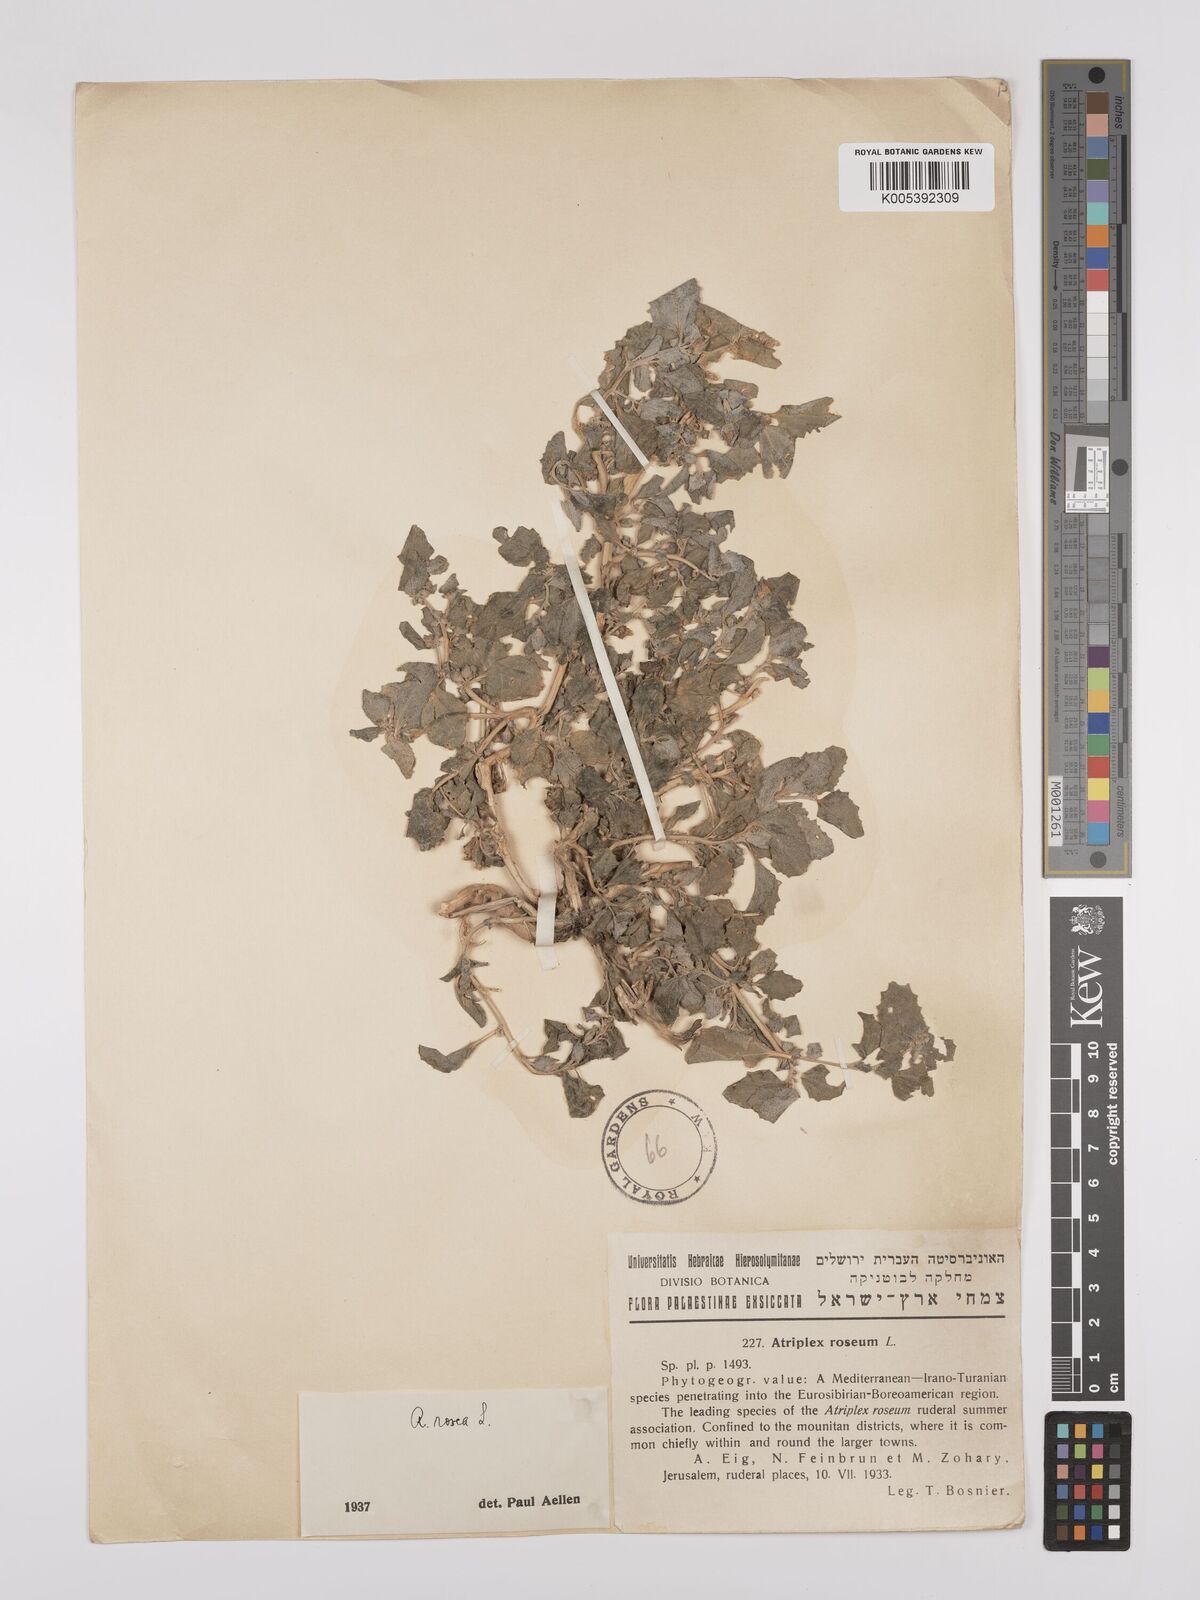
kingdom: Plantae
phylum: Tracheophyta
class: Magnoliopsida
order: Caryophyllales
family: Amaranthaceae
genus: Atriplex
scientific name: Atriplex
